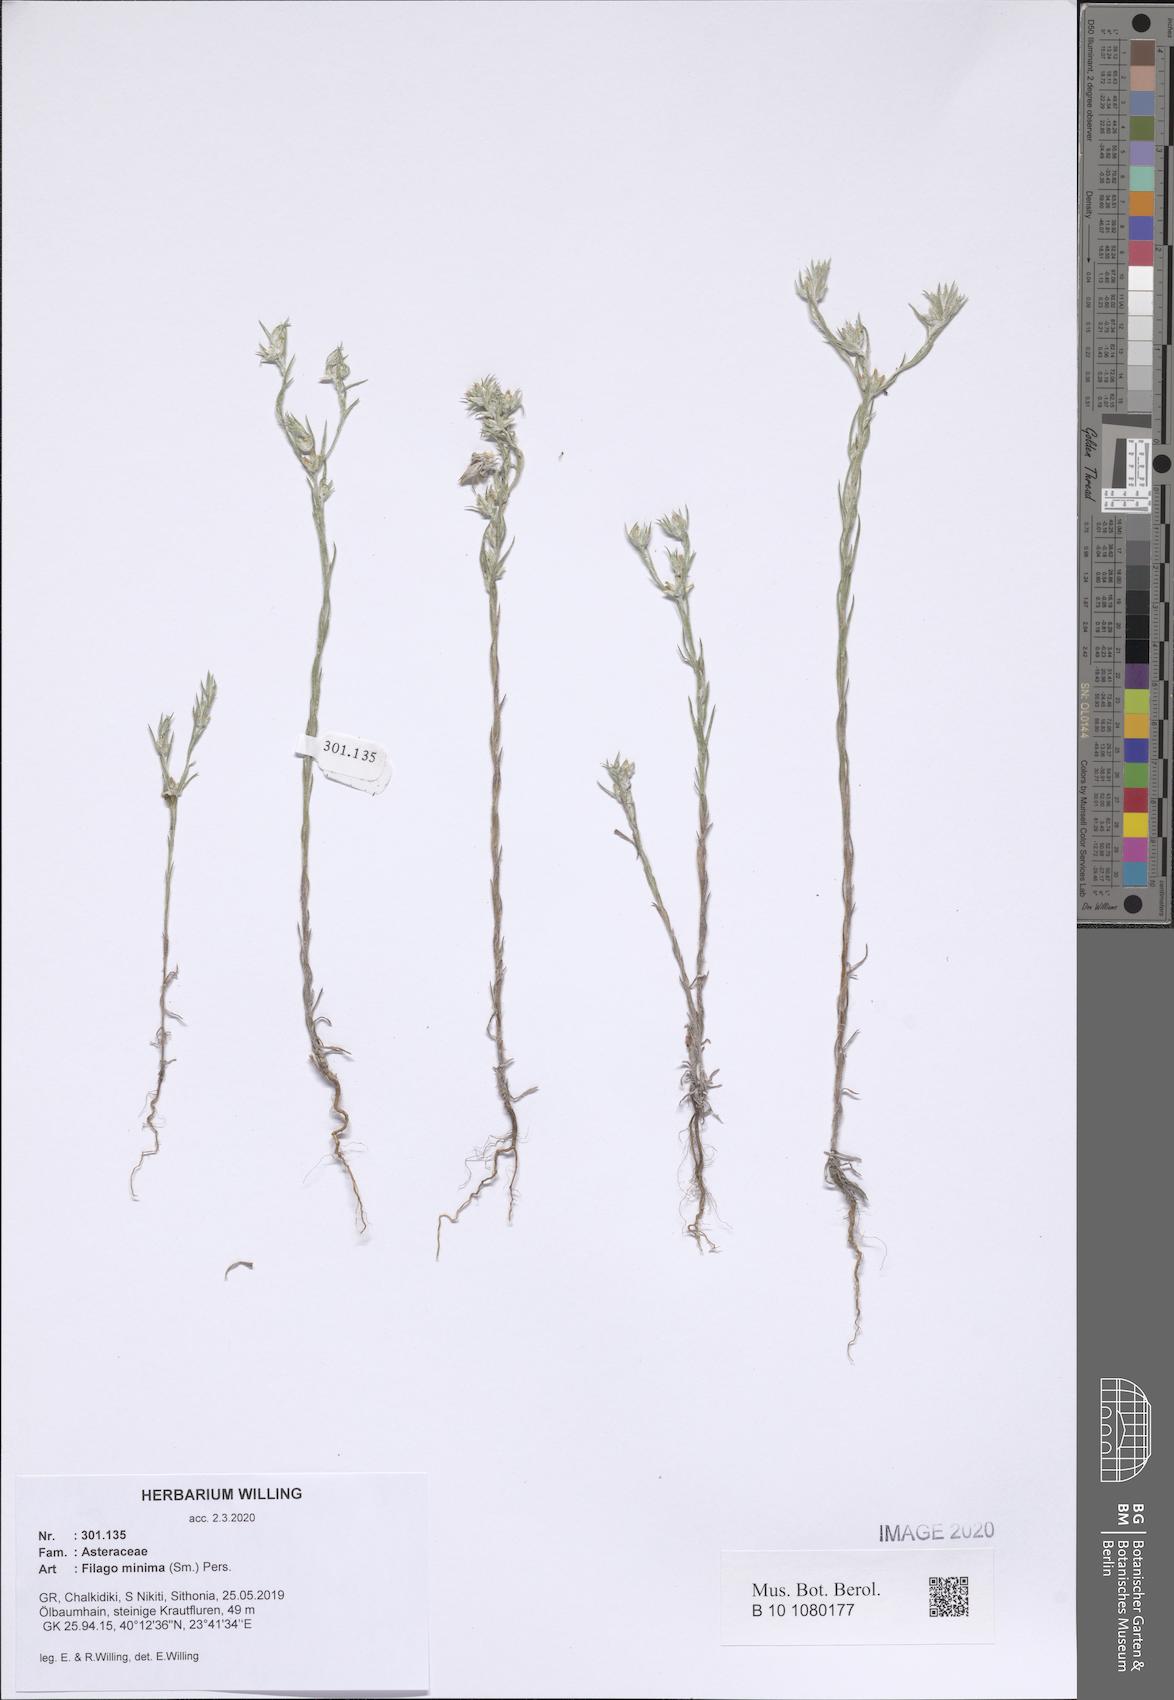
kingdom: Plantae
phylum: Tracheophyta
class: Magnoliopsida
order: Asterales
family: Asteraceae
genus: Logfia
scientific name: Logfia minima
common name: Little cottonrose
